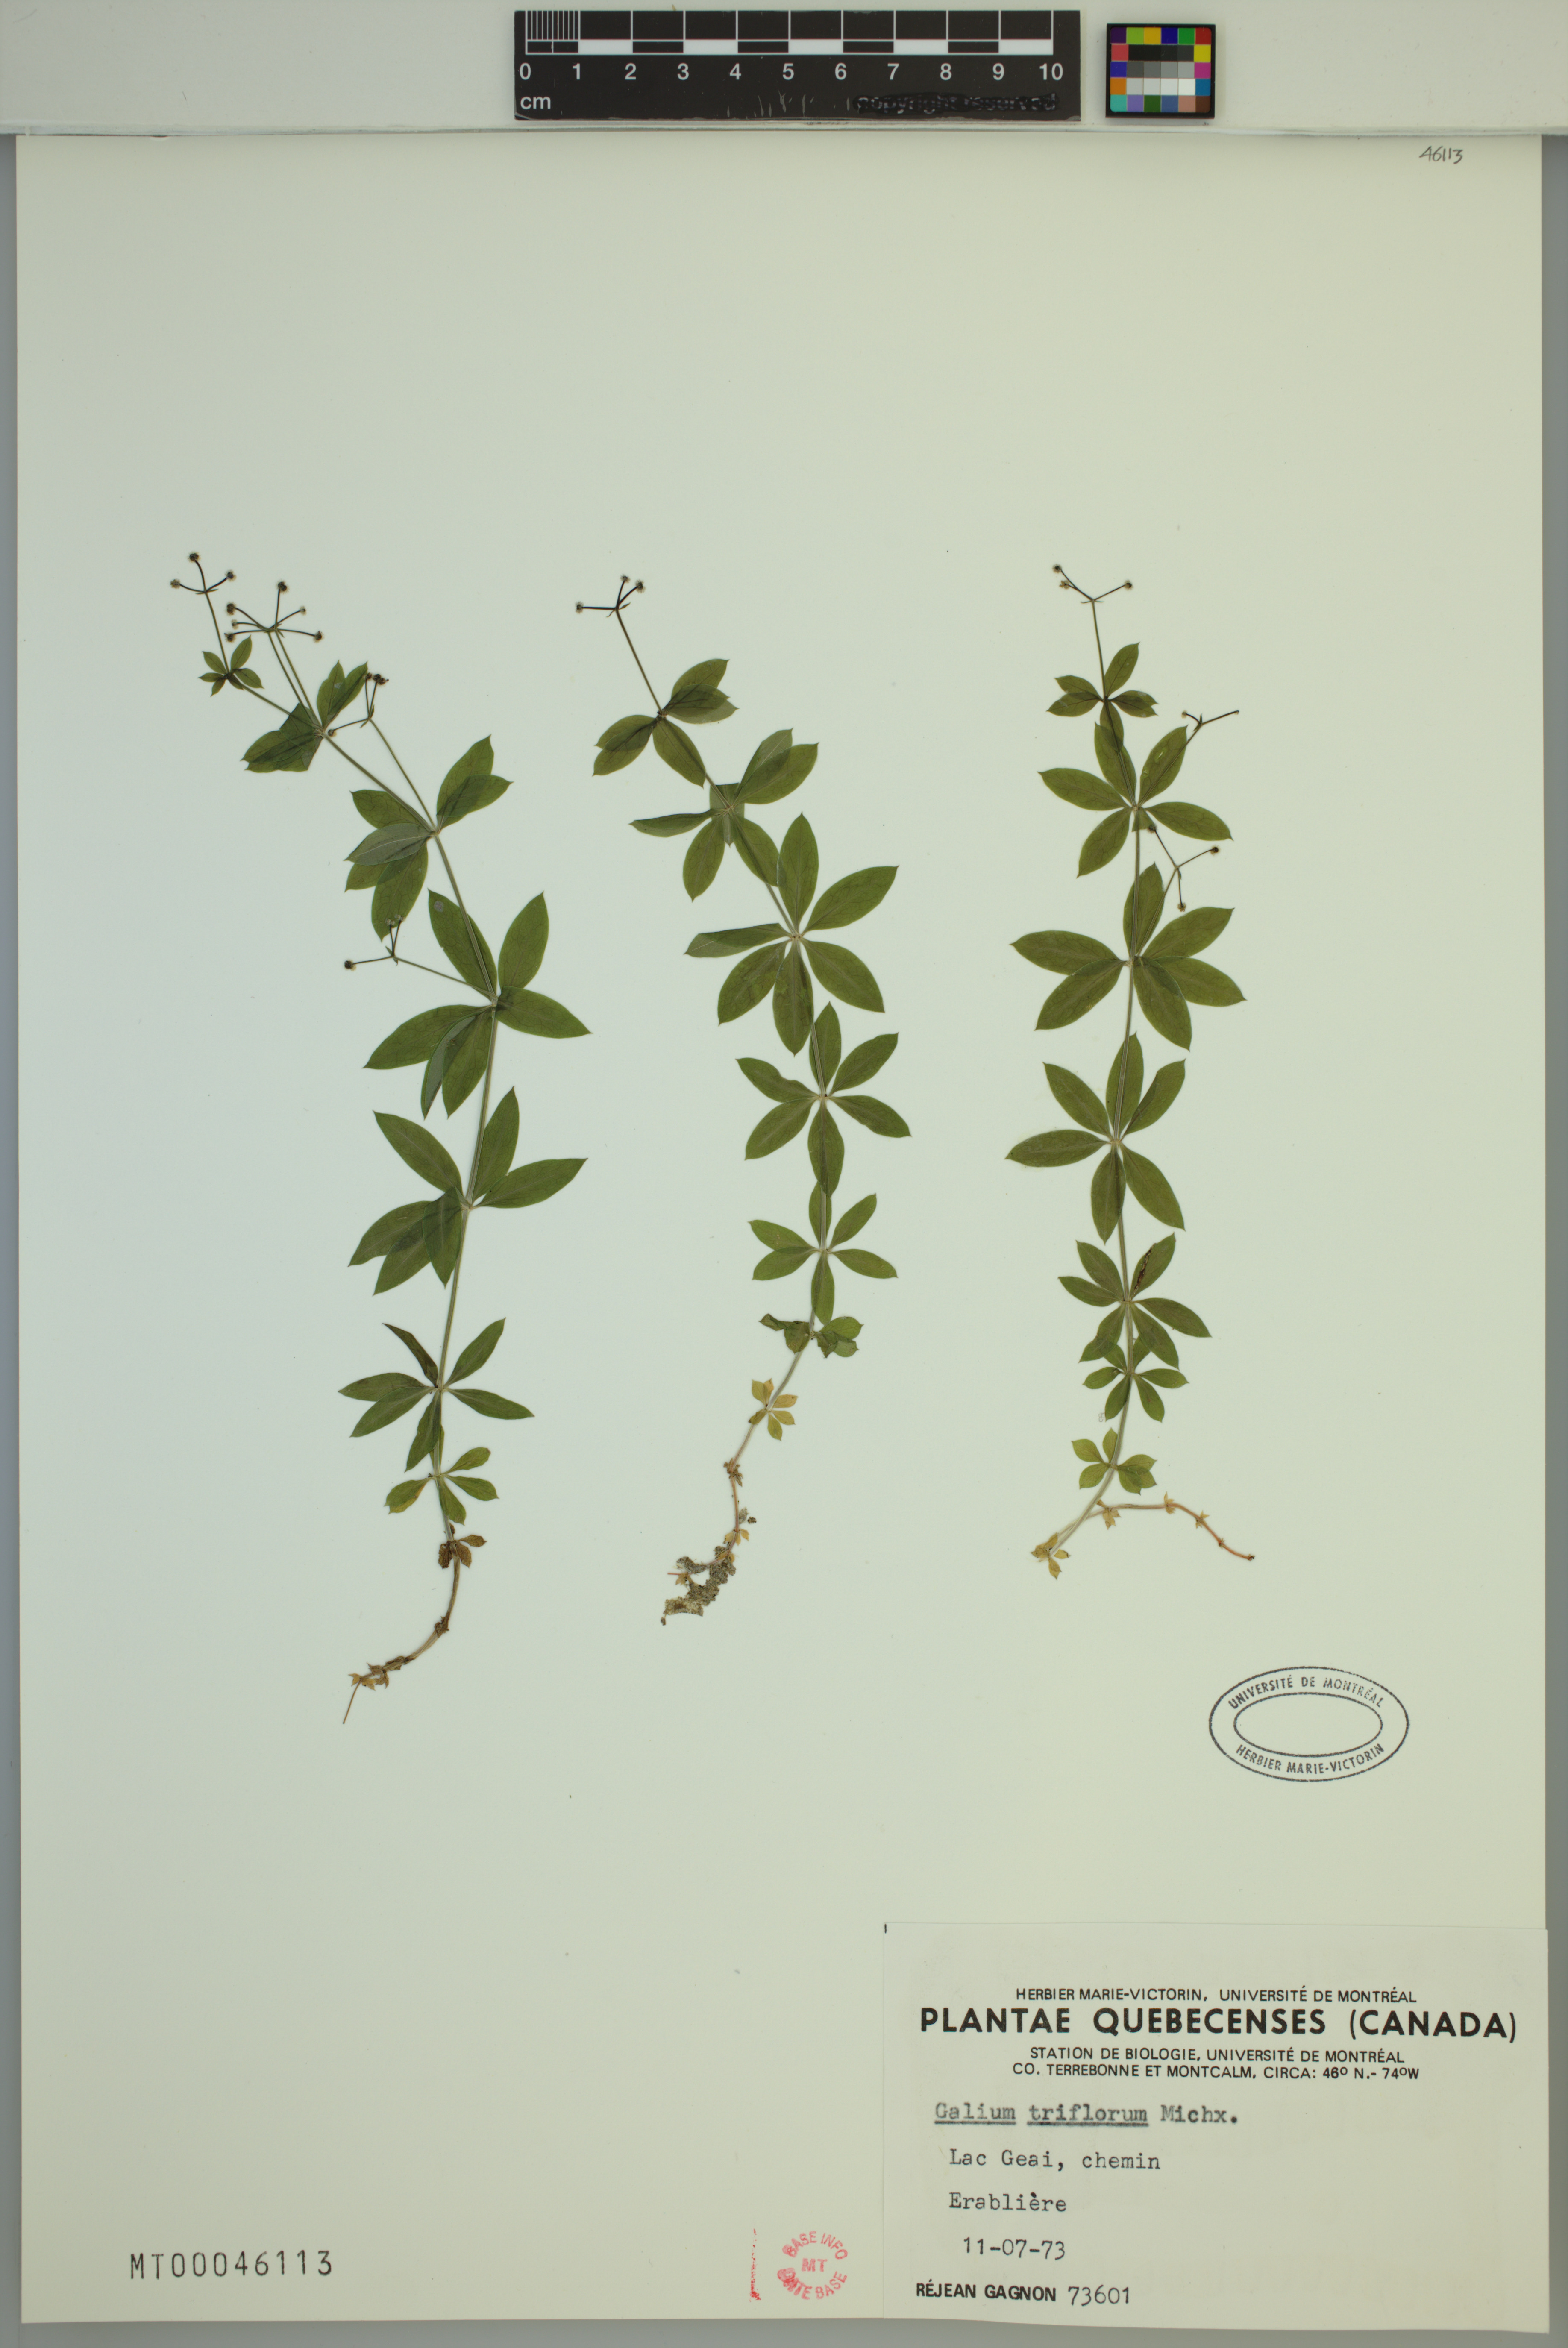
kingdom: Plantae
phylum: Tracheophyta
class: Magnoliopsida
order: Gentianales
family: Rubiaceae
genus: Galium
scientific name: Galium triflorum
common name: Fragrant bedstraw
